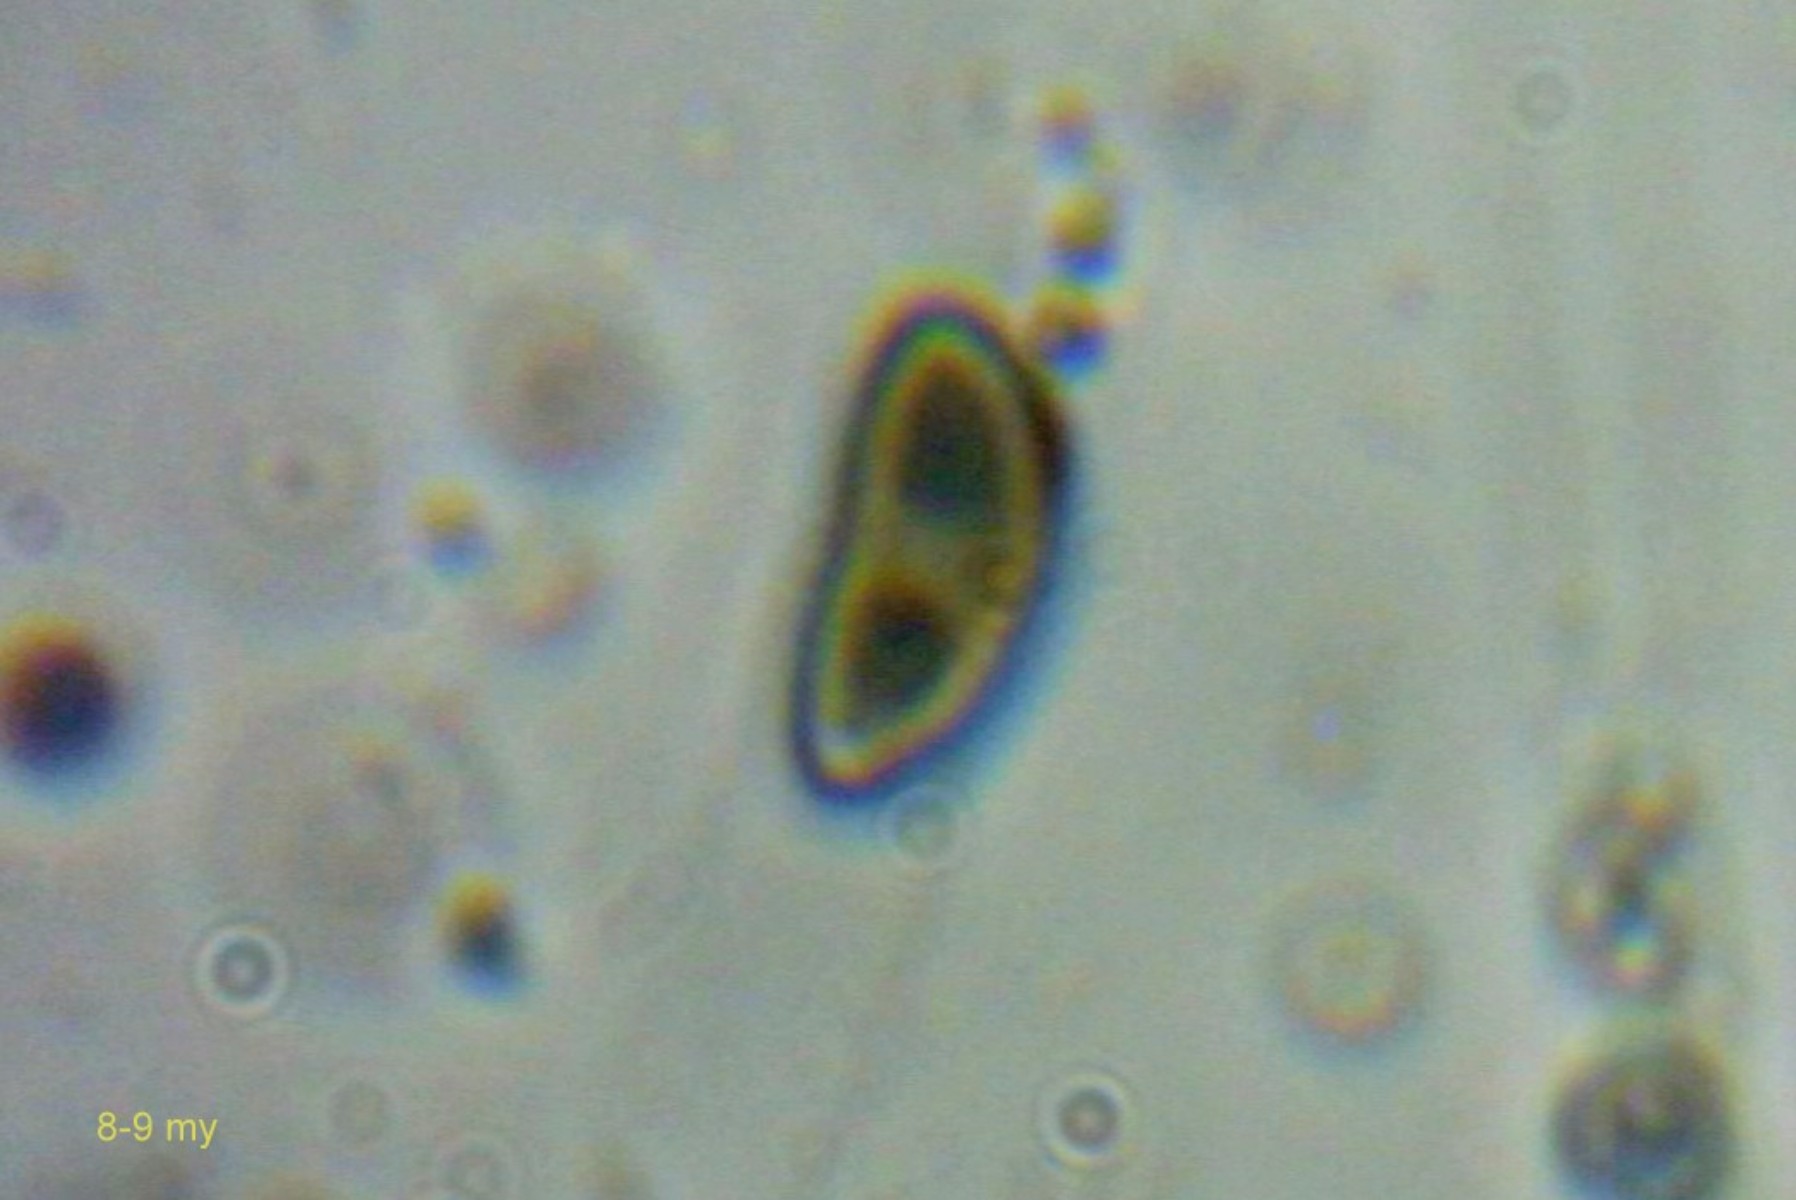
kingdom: Fungi
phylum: Ascomycota
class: Sordariomycetes
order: Xylariales
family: Hypoxylaceae
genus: Jackrogersella
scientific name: Jackrogersella cohaerens
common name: sammenflydende kulbær
